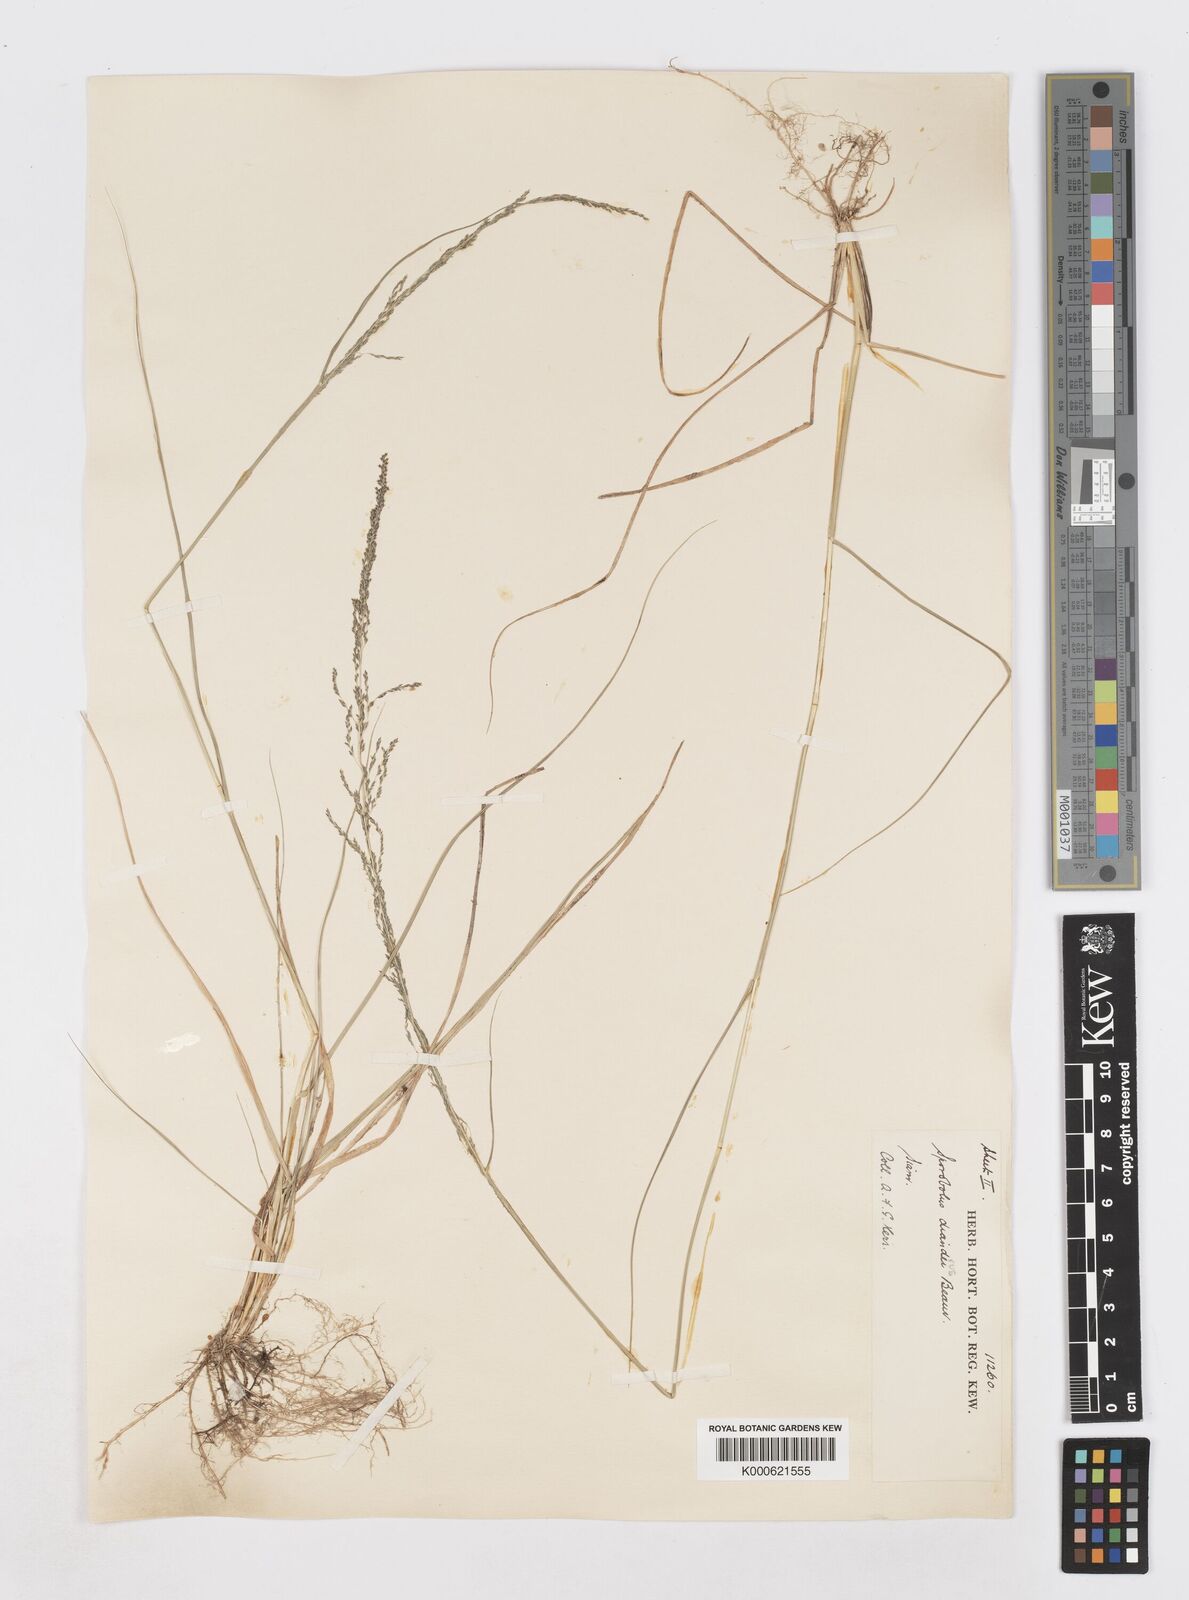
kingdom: Plantae
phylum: Tracheophyta
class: Liliopsida
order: Poales
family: Poaceae
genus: Sporobolus
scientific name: Sporobolus diandrus
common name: Tussock dropseed
